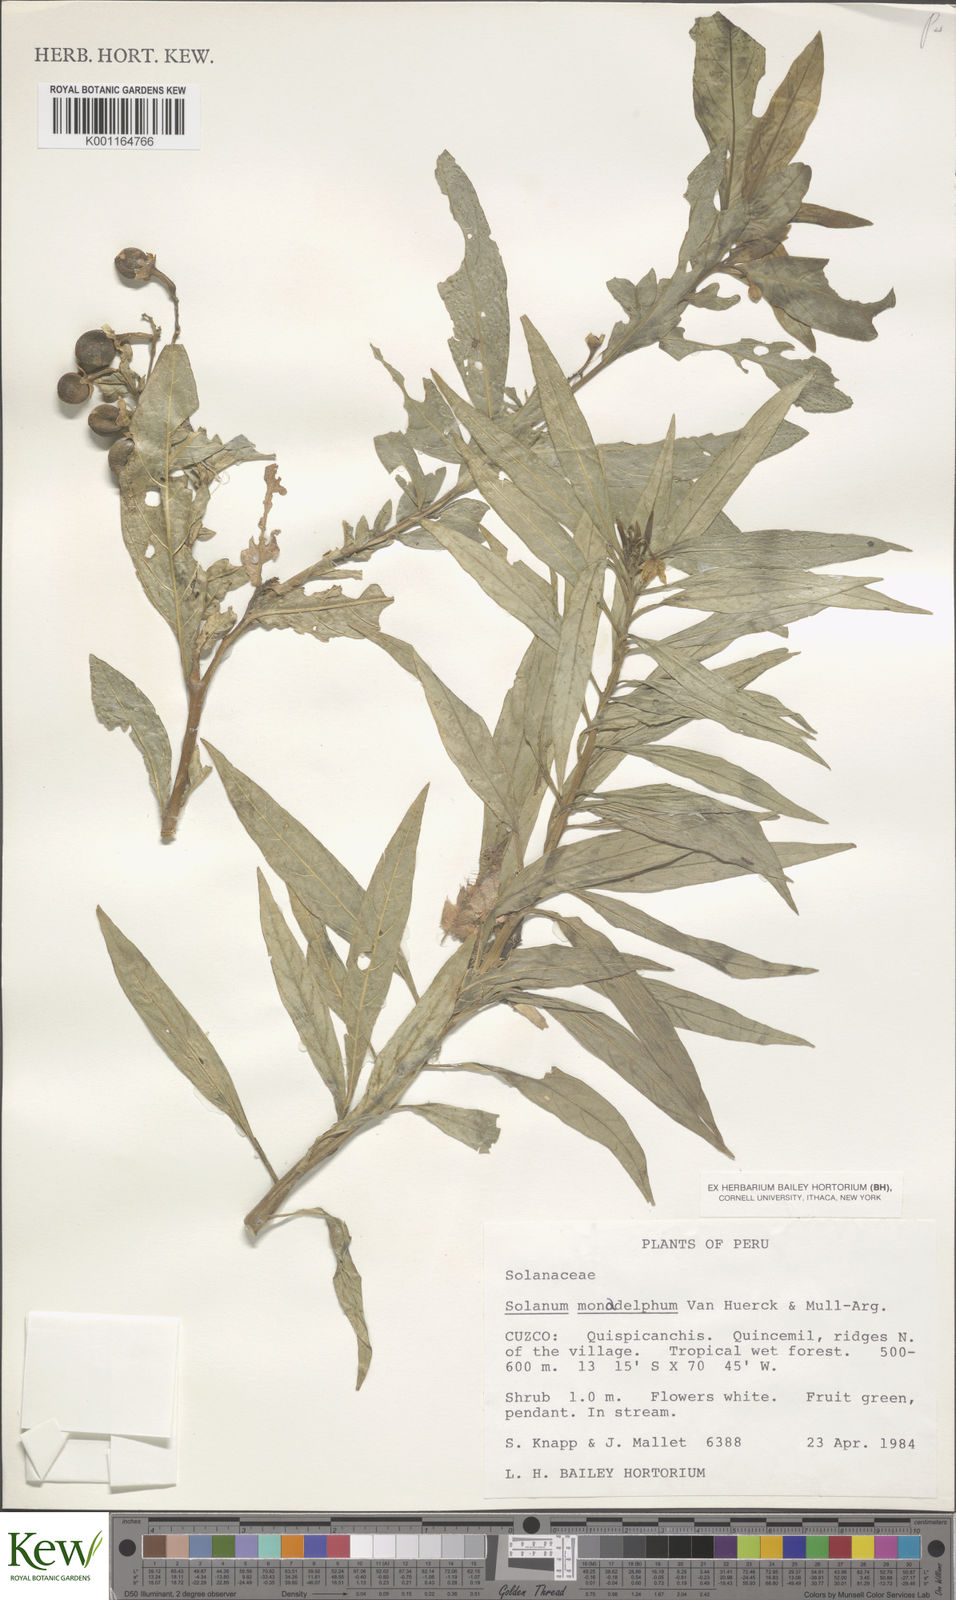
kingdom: Plantae
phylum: Tracheophyta
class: Magnoliopsida
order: Solanales
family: Solanaceae
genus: Solanum
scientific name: Solanum monadelphum
